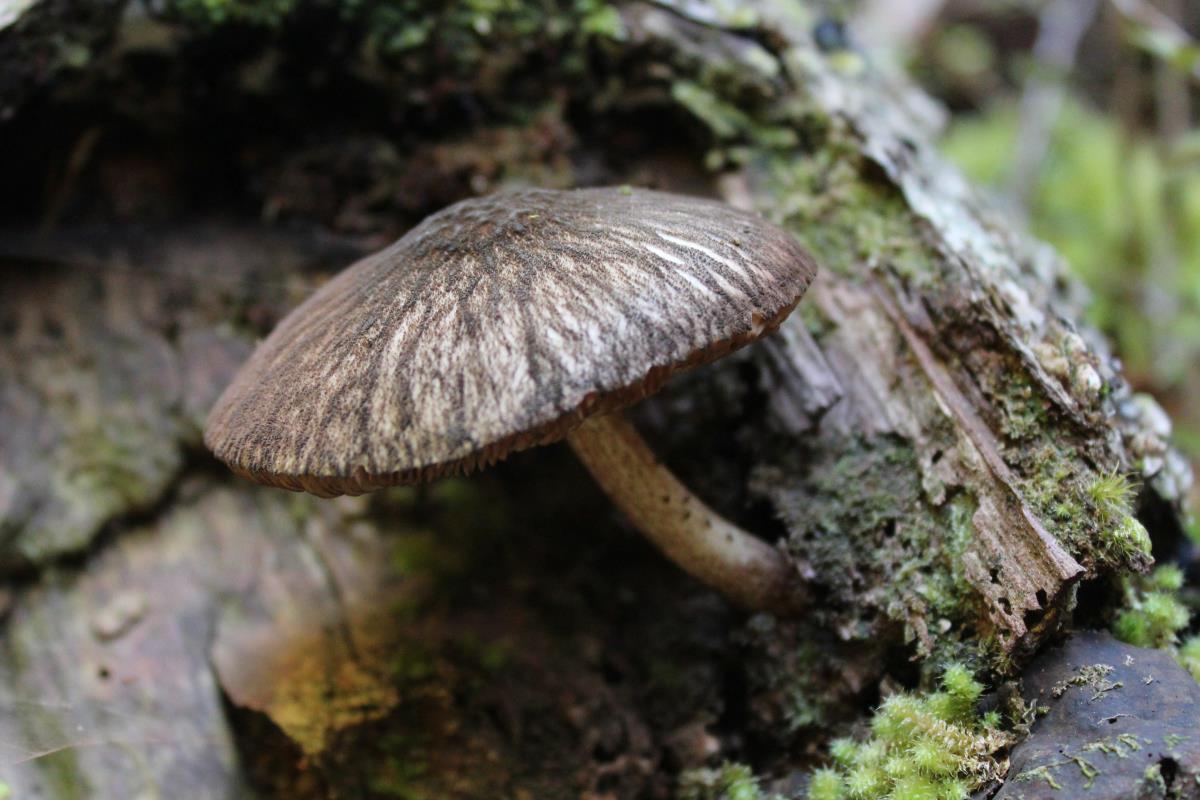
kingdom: Fungi
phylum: Basidiomycota
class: Agaricomycetes
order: Agaricales
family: Pluteaceae
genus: Pluteus
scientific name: Pluteus perroseus
